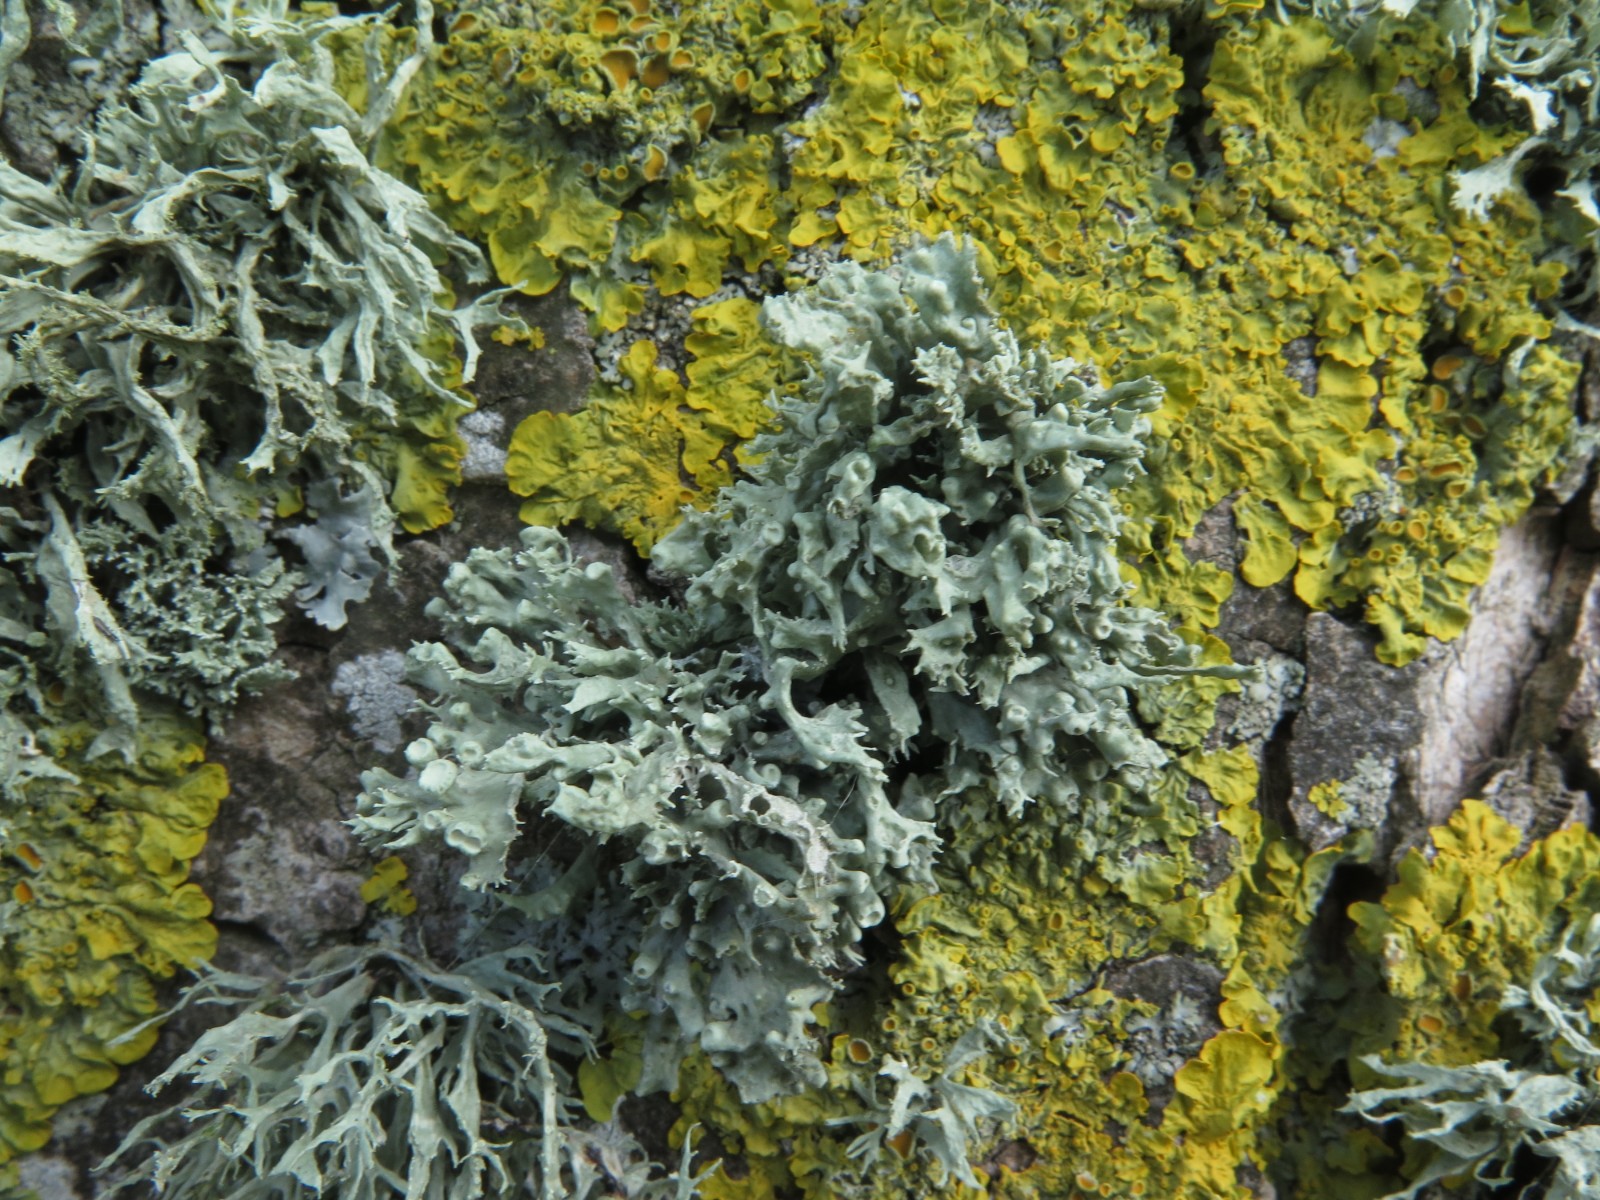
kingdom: Fungi
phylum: Ascomycota
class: Lecanoromycetes
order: Lecanorales
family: Ramalinaceae
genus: Ramalina
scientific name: Ramalina fastigiata
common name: tue-grenlav
